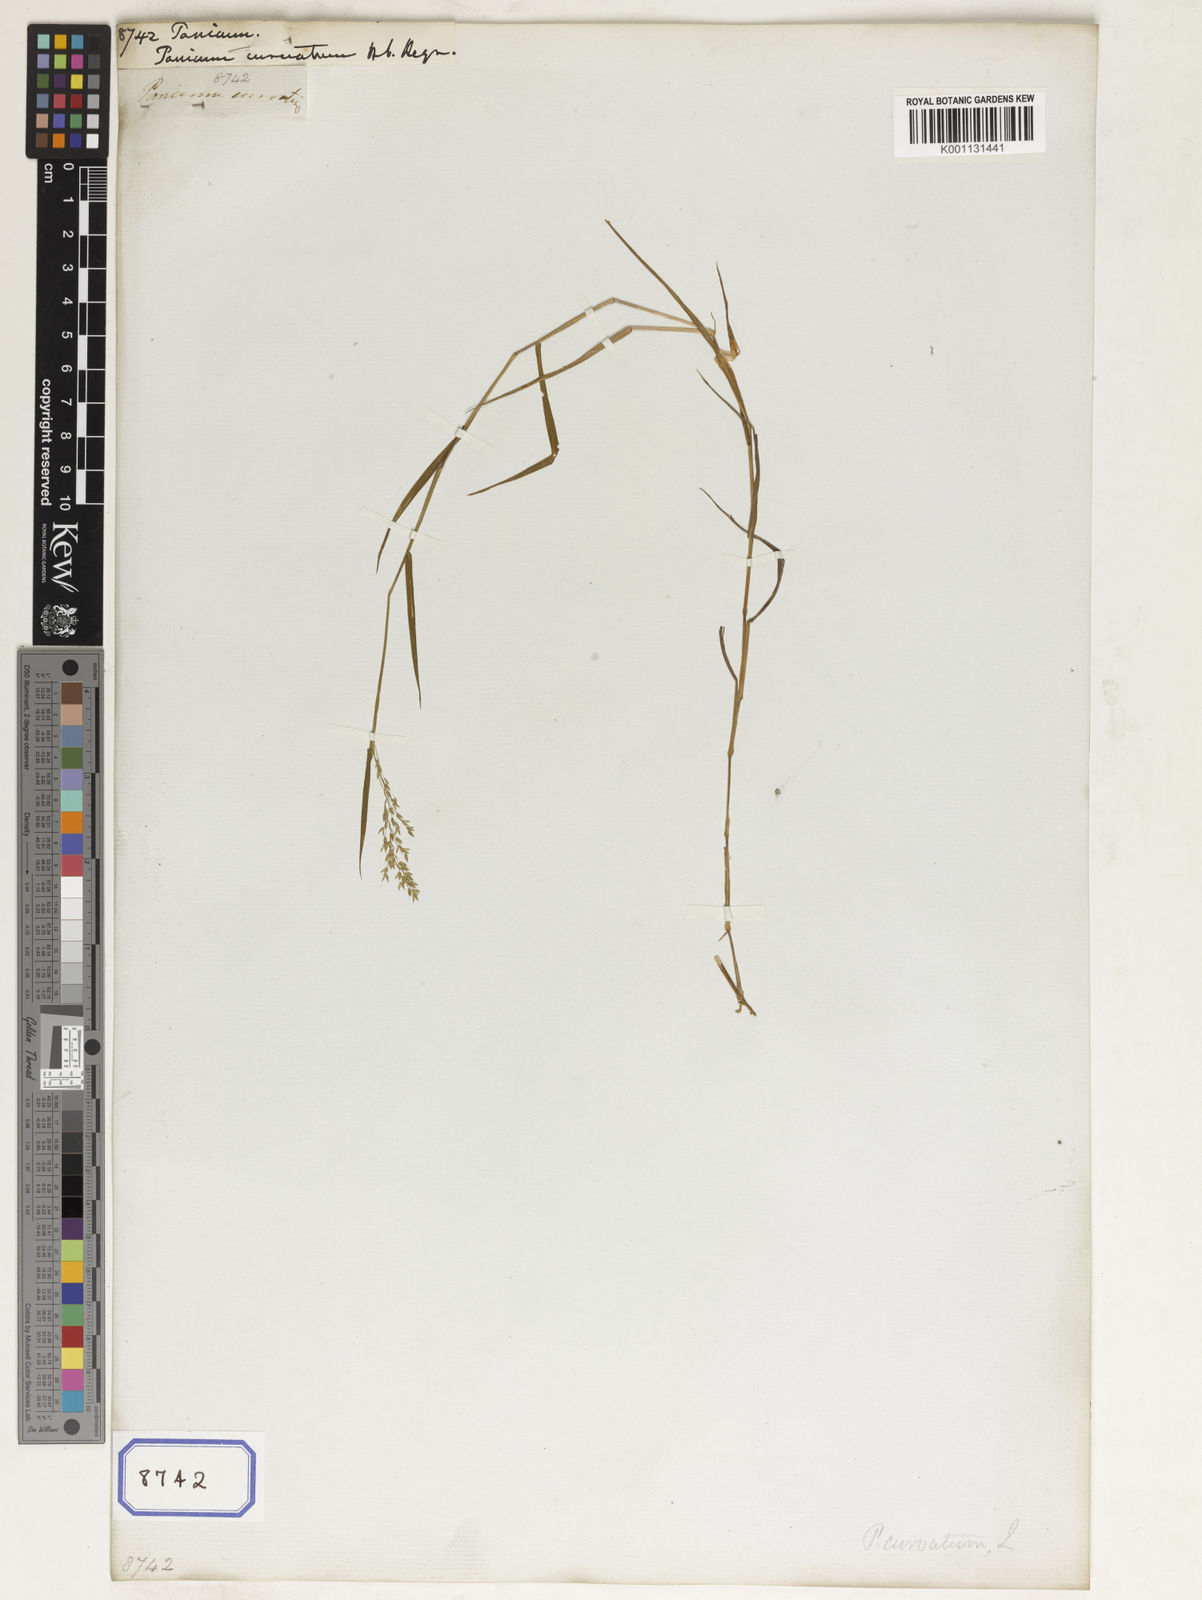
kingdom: Plantae
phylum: Tracheophyta
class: Liliopsida
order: Poales
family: Poaceae
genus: Panicum
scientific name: Panicum
